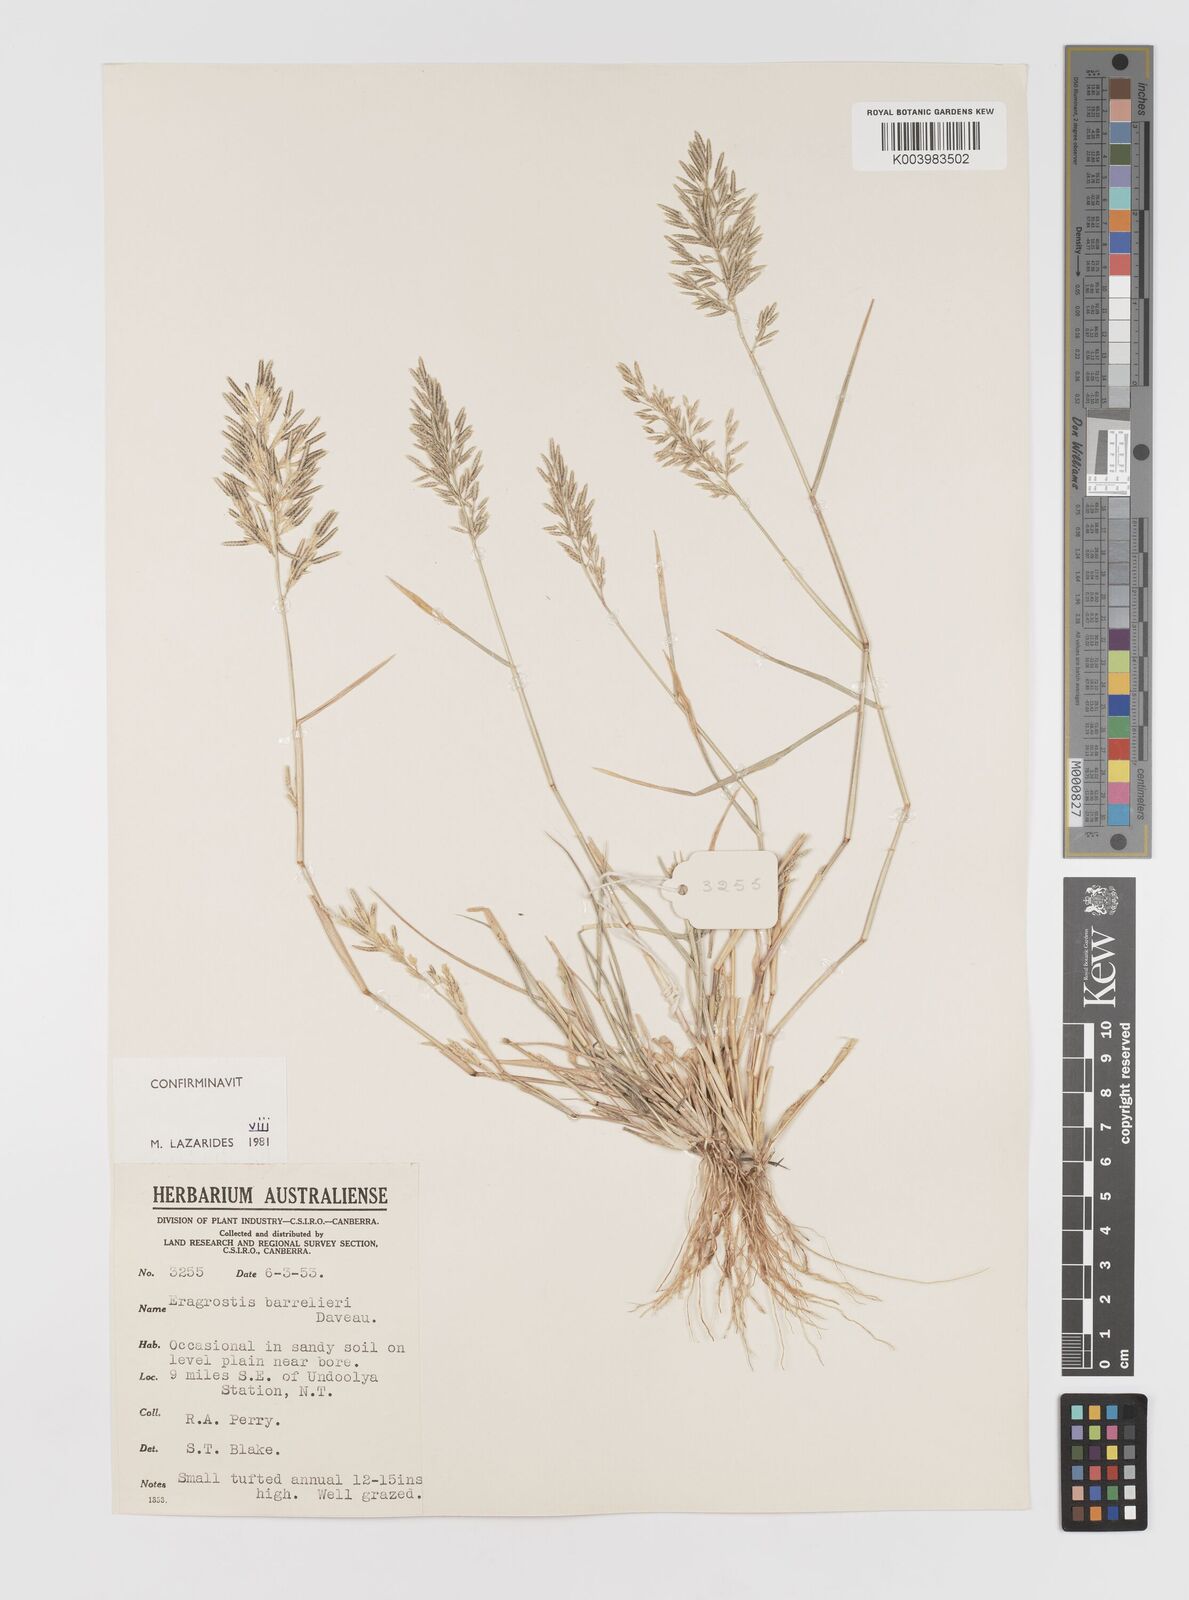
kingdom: Plantae
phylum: Tracheophyta
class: Liliopsida
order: Poales
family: Poaceae
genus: Eragrostis
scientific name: Eragrostis barrelieri
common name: Mediterranean lovegrass
